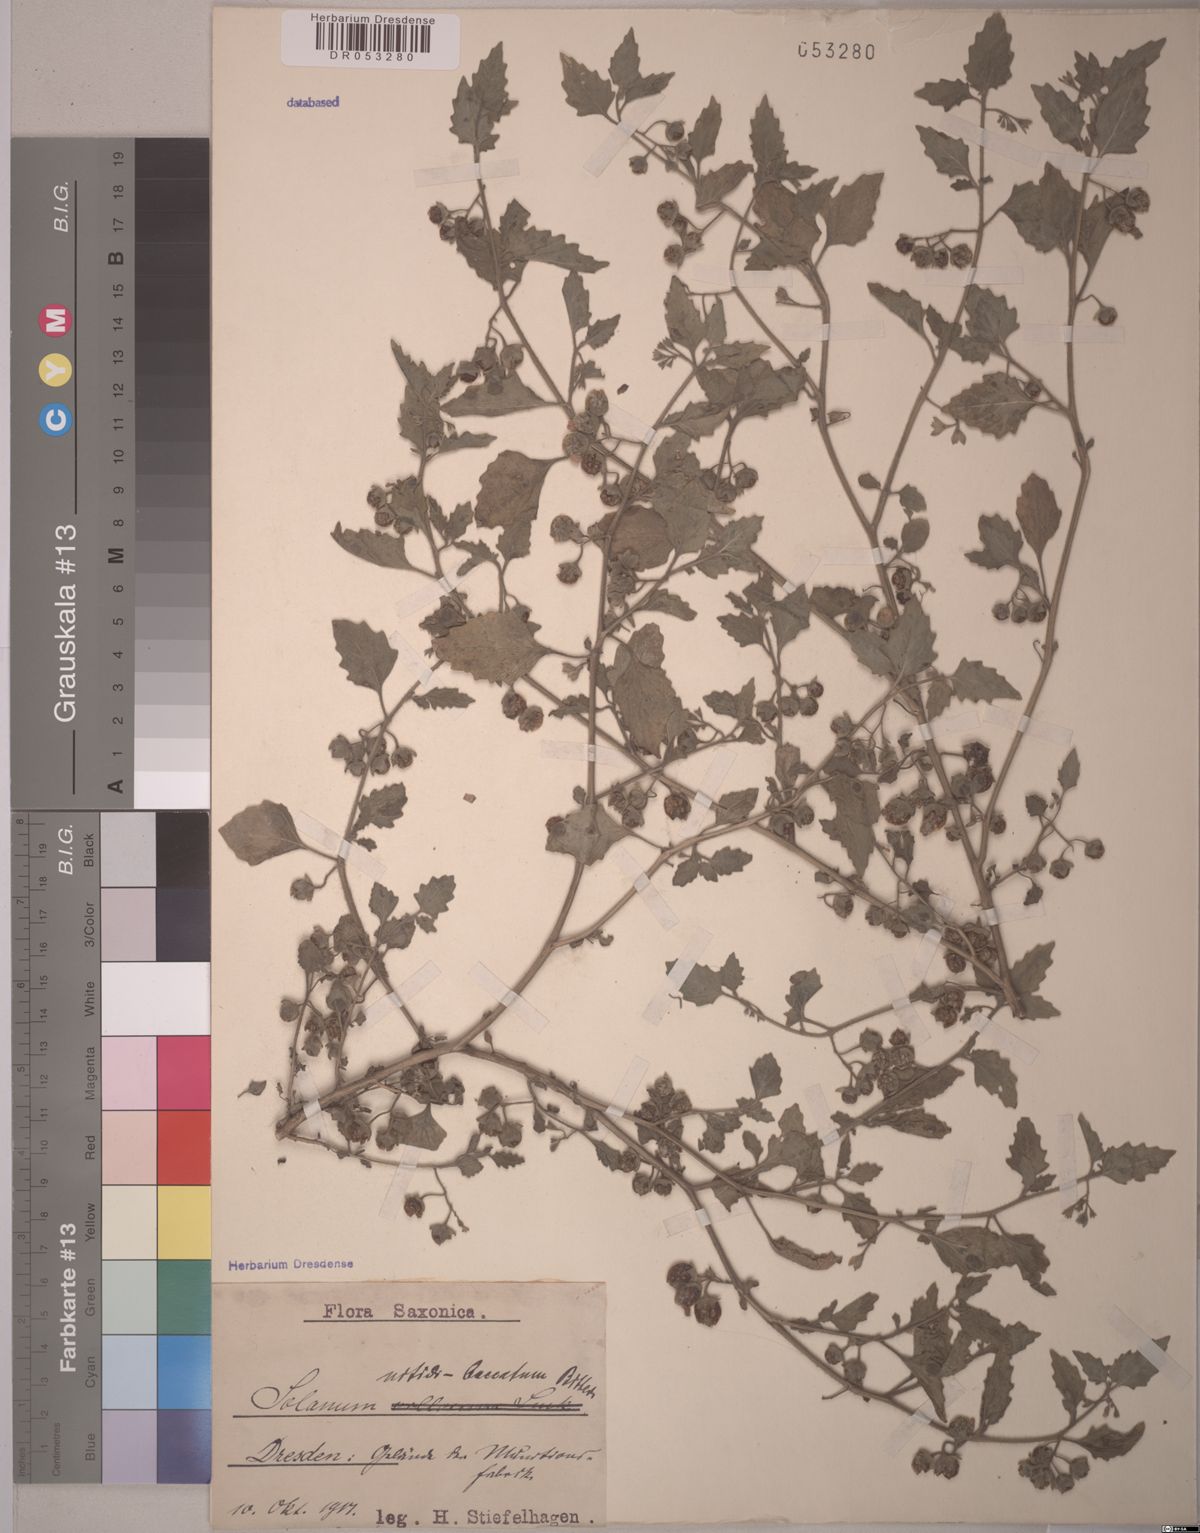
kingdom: Plantae
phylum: Tracheophyta
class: Magnoliopsida
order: Solanales
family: Solanaceae
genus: Solanum
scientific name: Solanum nitidibaccatum
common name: Hairy nightshade
